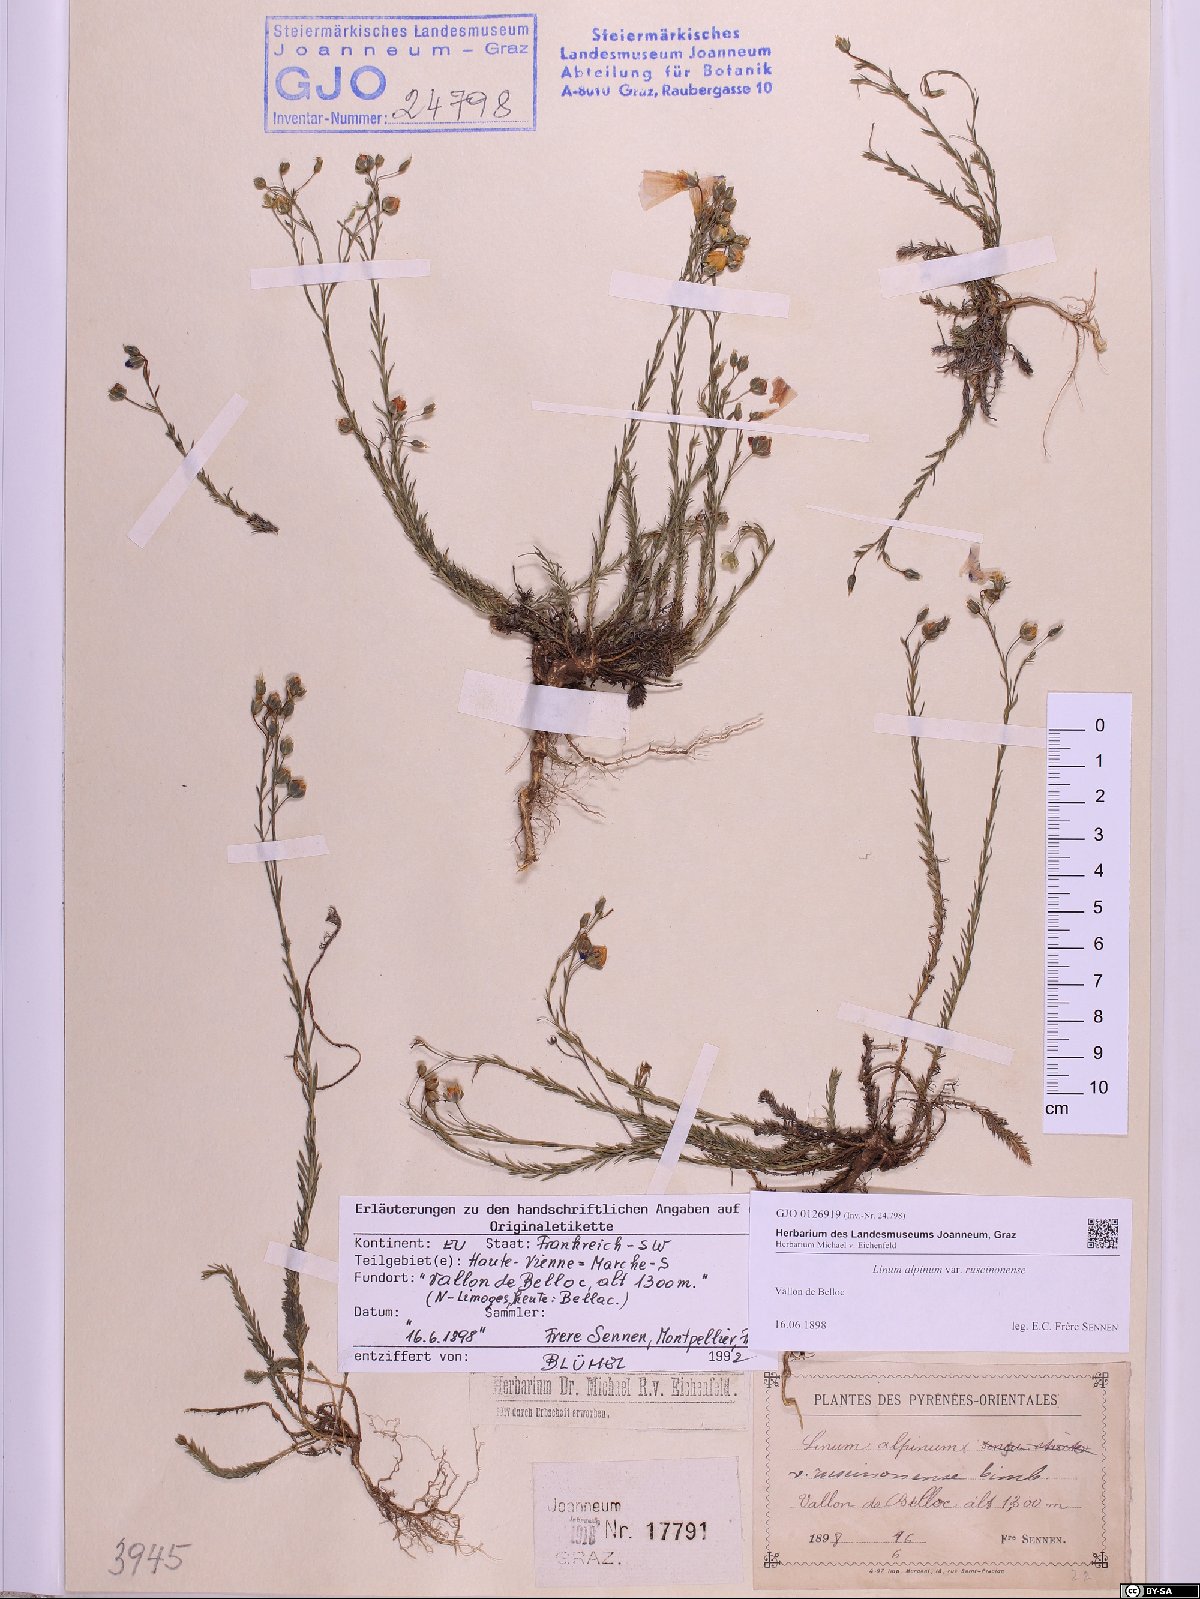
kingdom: Plantae
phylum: Tracheophyta
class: Magnoliopsida
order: Malpighiales
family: Linaceae
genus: Linum
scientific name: Linum alpinum
